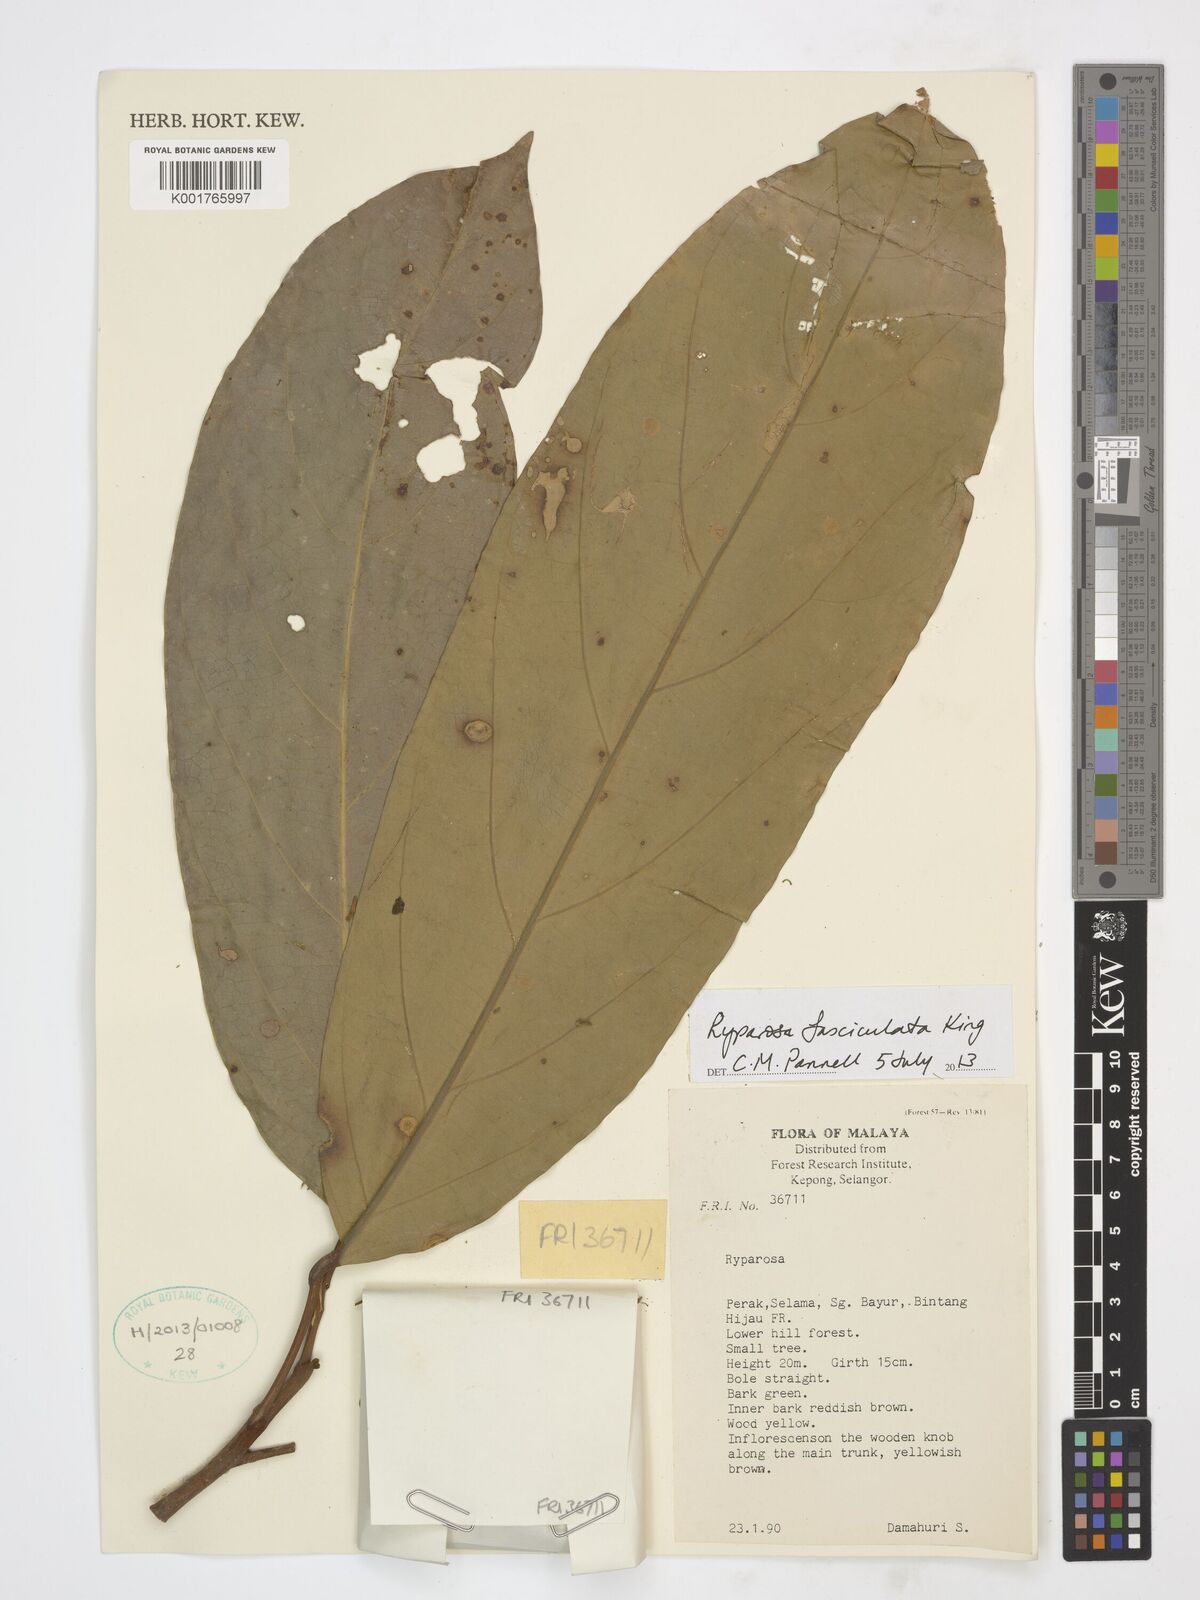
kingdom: Plantae
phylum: Tracheophyta
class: Magnoliopsida
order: Malpighiales
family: Achariaceae
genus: Ryparosa
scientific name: Ryparosa fasciculata
